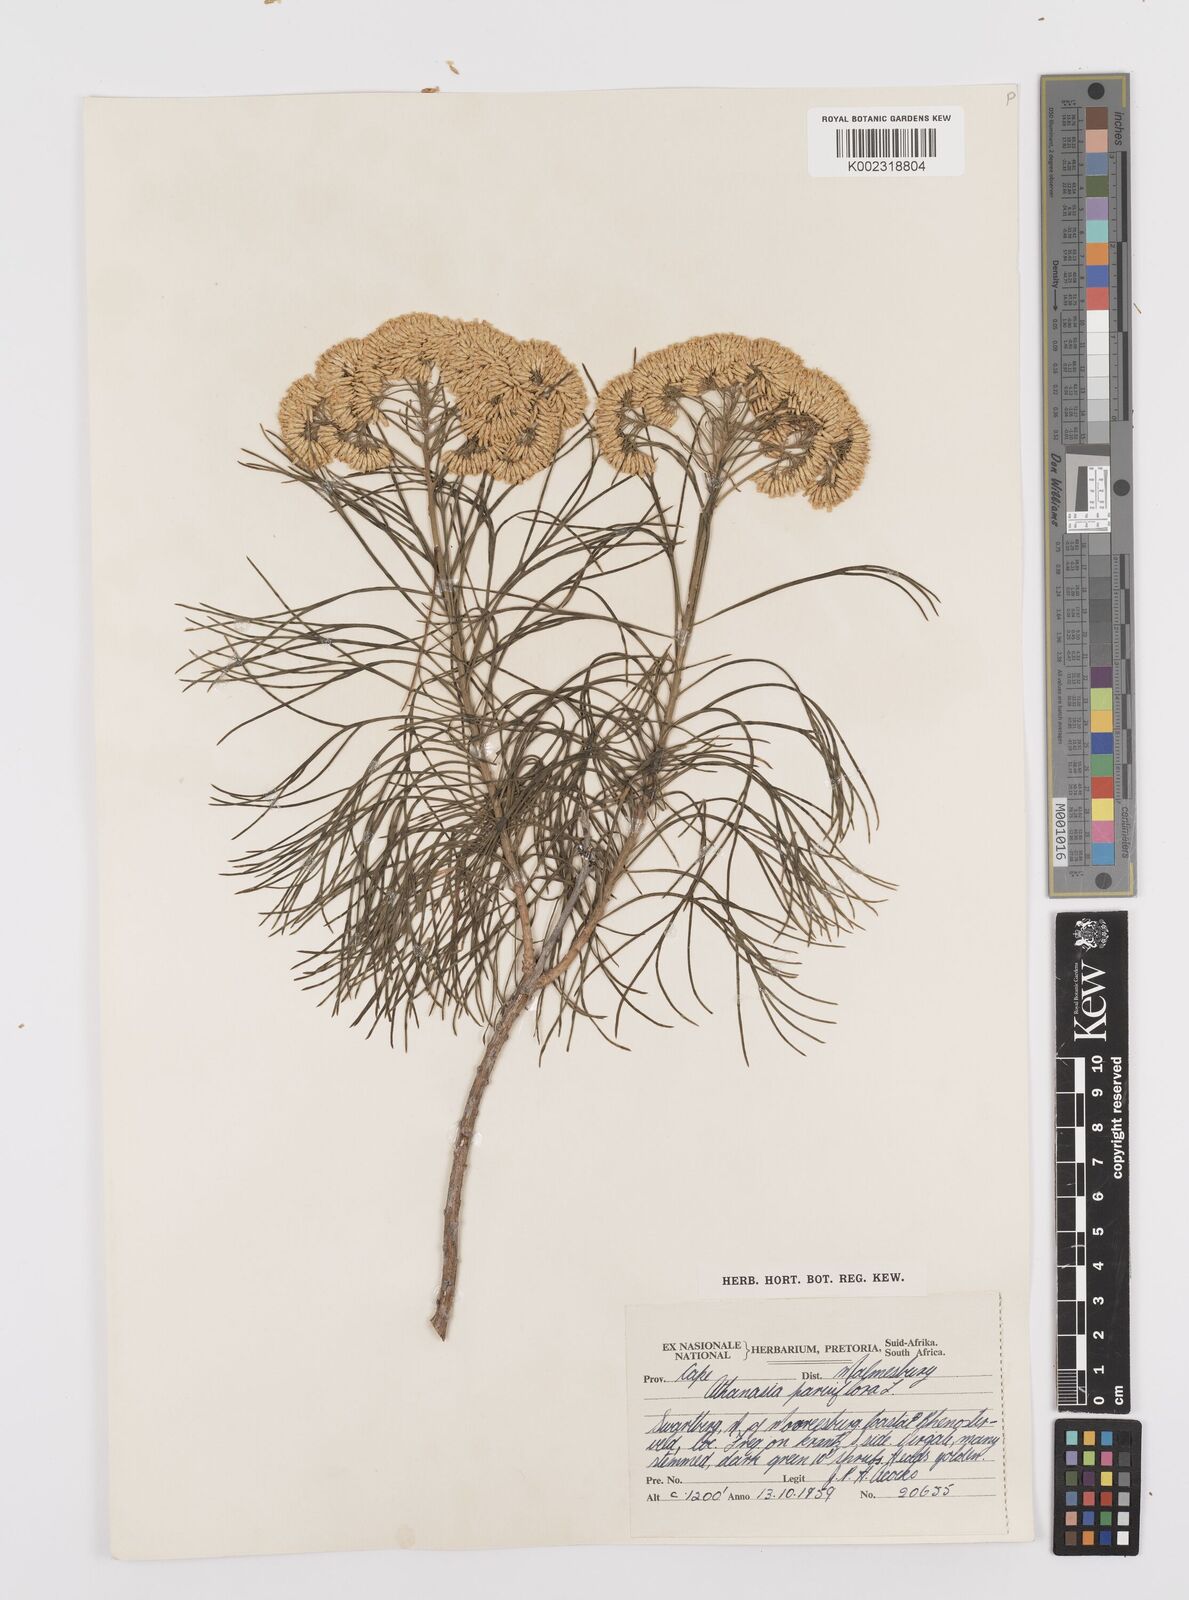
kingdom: Plantae
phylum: Tracheophyta
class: Magnoliopsida
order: Asterales
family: Asteraceae
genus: Hymenolepis
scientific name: Hymenolepis crithmifolia
